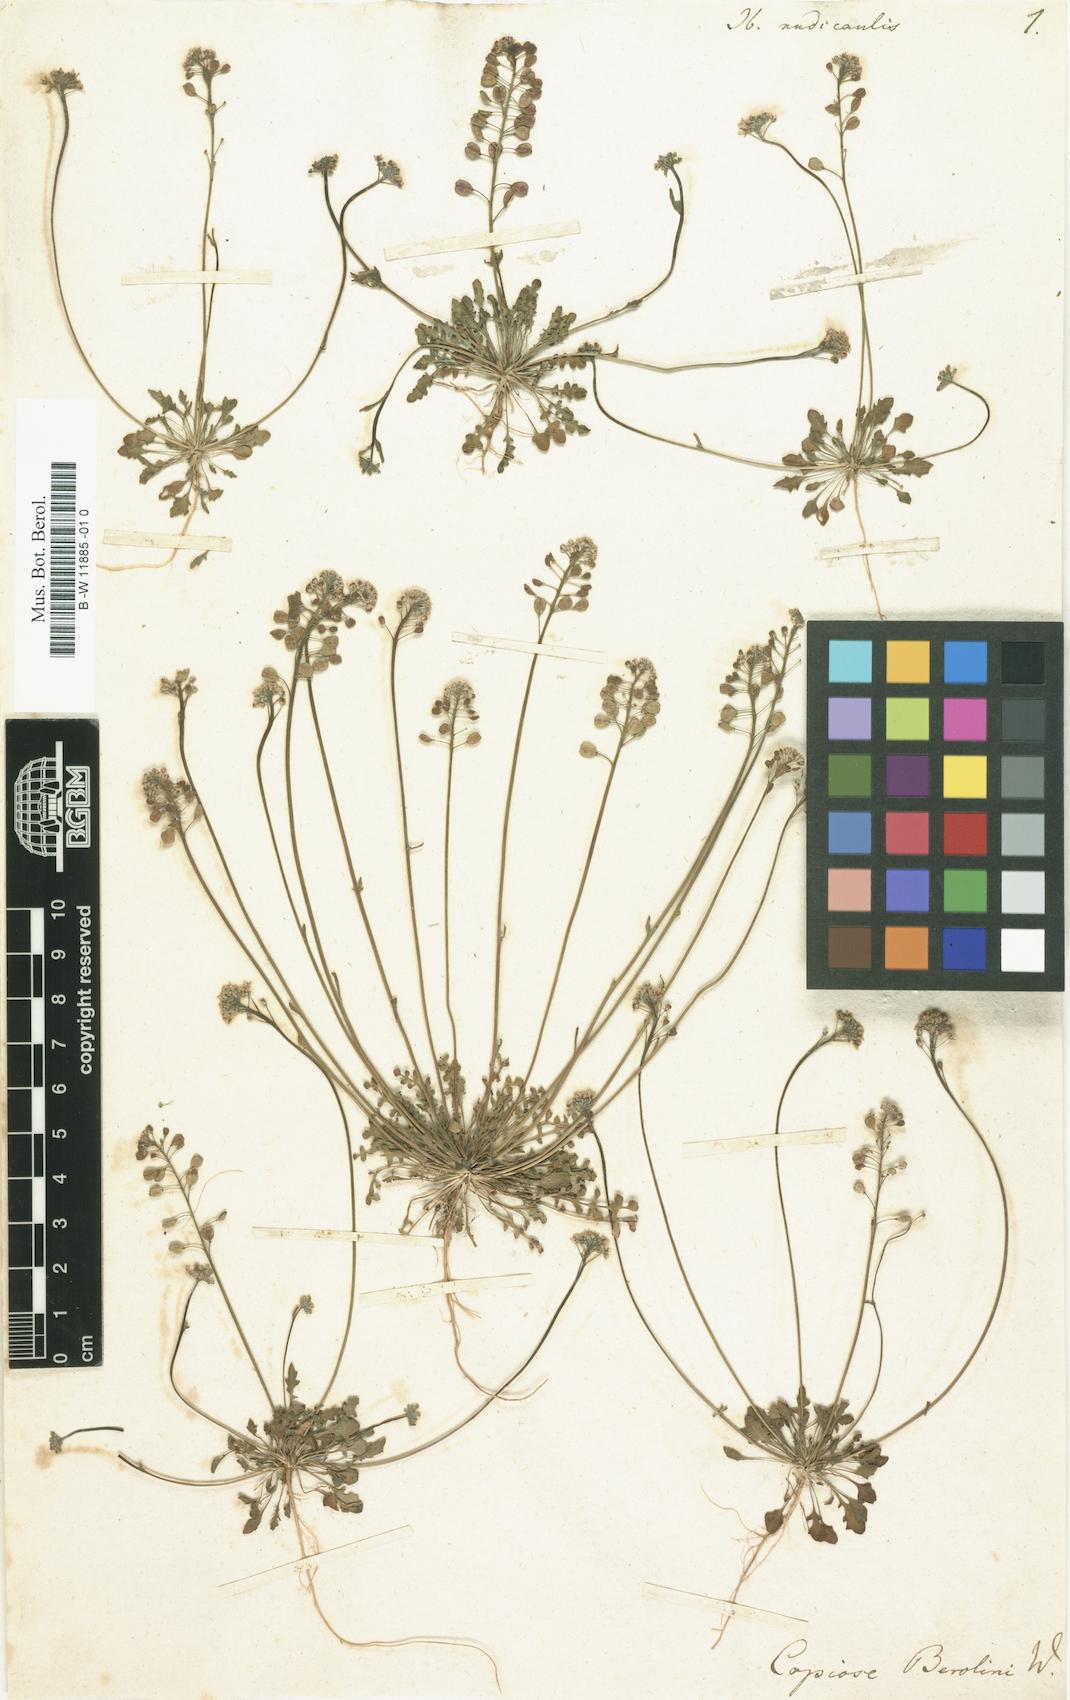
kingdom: Plantae
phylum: Tracheophyta
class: Magnoliopsida
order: Brassicales
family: Brassicaceae
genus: Teesdalia
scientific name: Teesdalia nudicaulis
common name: Shepherd's cress
